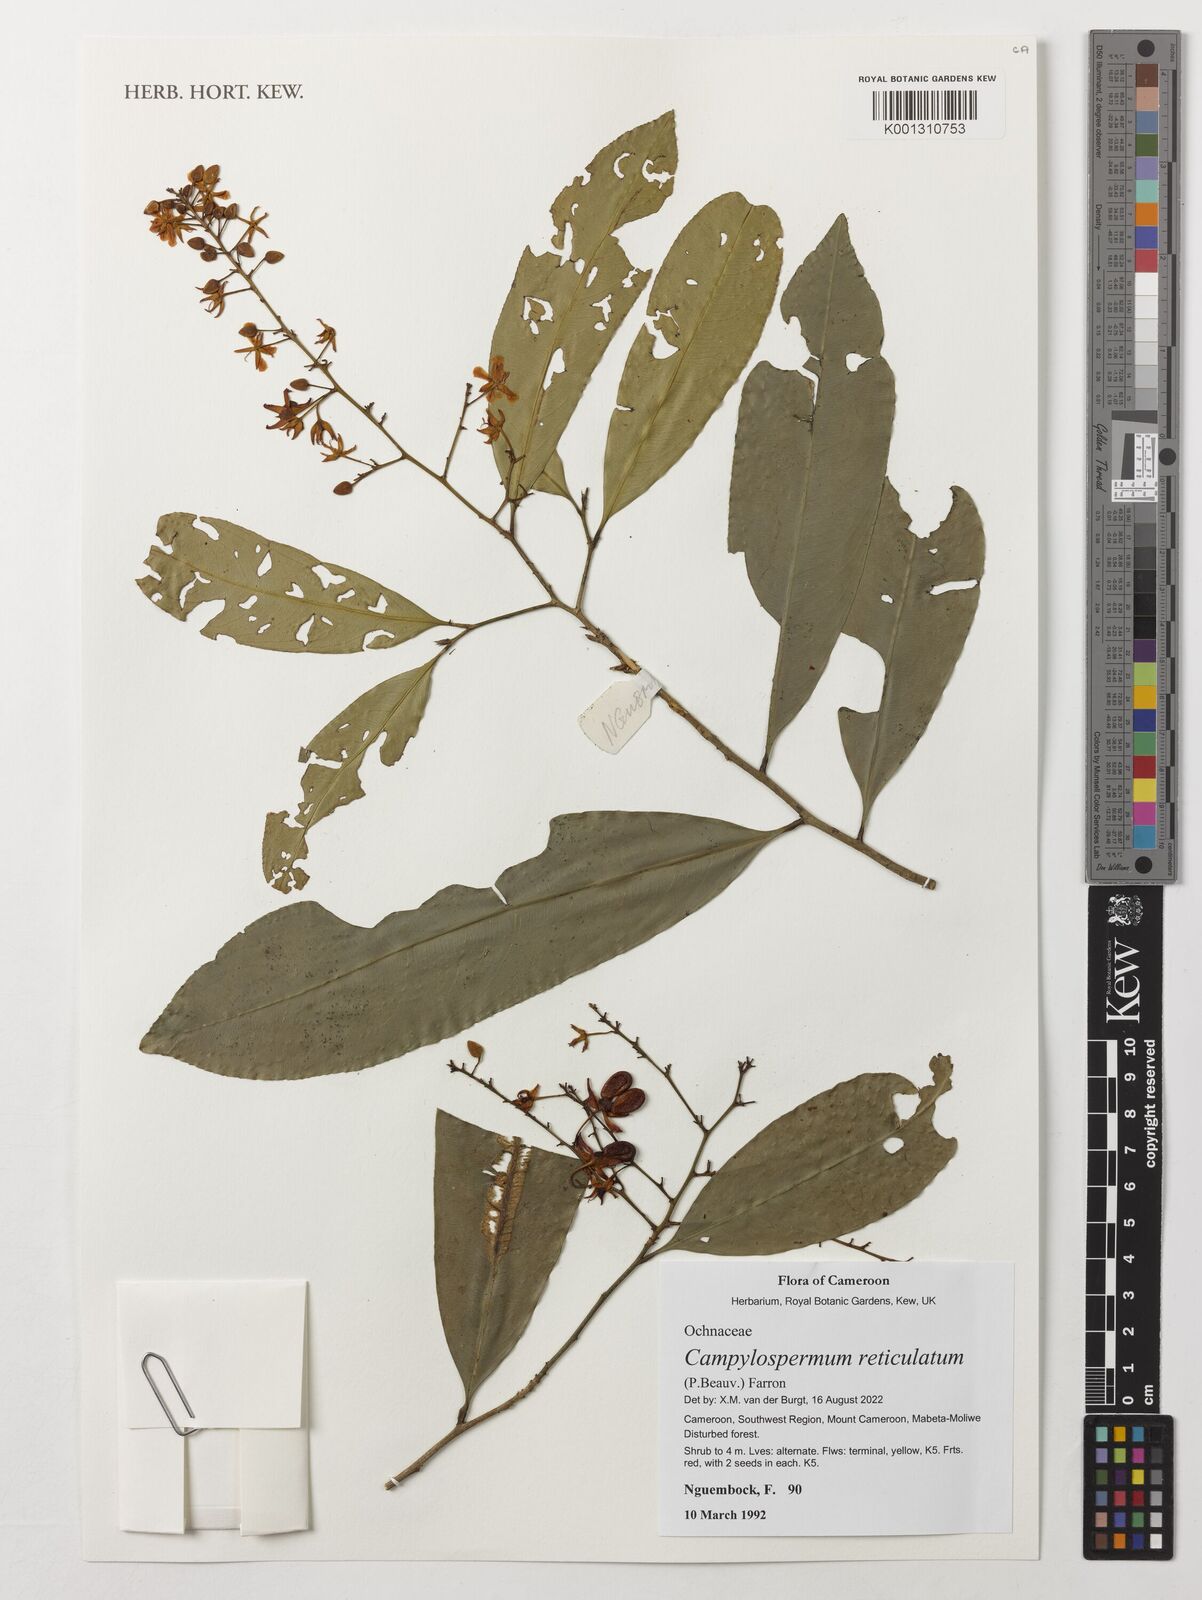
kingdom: Plantae
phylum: Tracheophyta
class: Magnoliopsida
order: Malpighiales
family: Ochnaceae
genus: Campylospermum
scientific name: Campylospermum reticulatum
